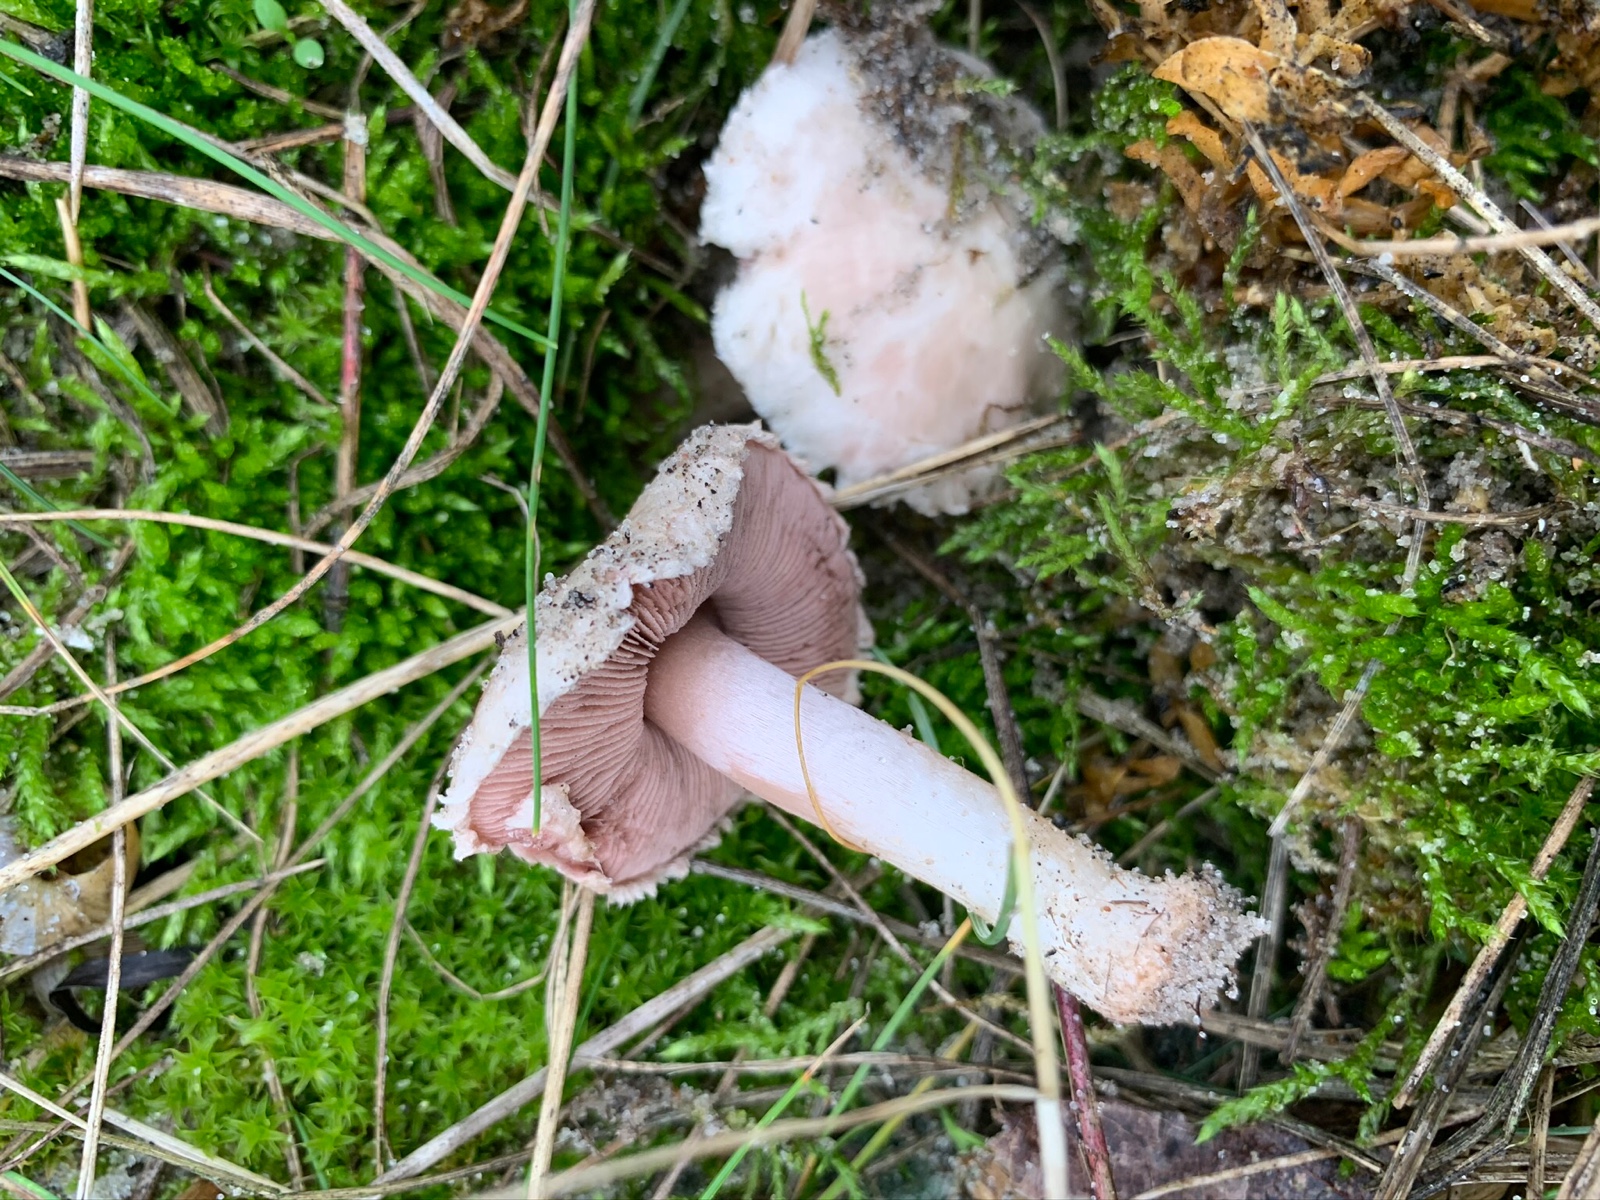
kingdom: Fungi
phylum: Basidiomycota
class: Agaricomycetes
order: Agaricales
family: Agaricaceae
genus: Agaricus
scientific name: Agaricus devoniensis
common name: klit-champignon
